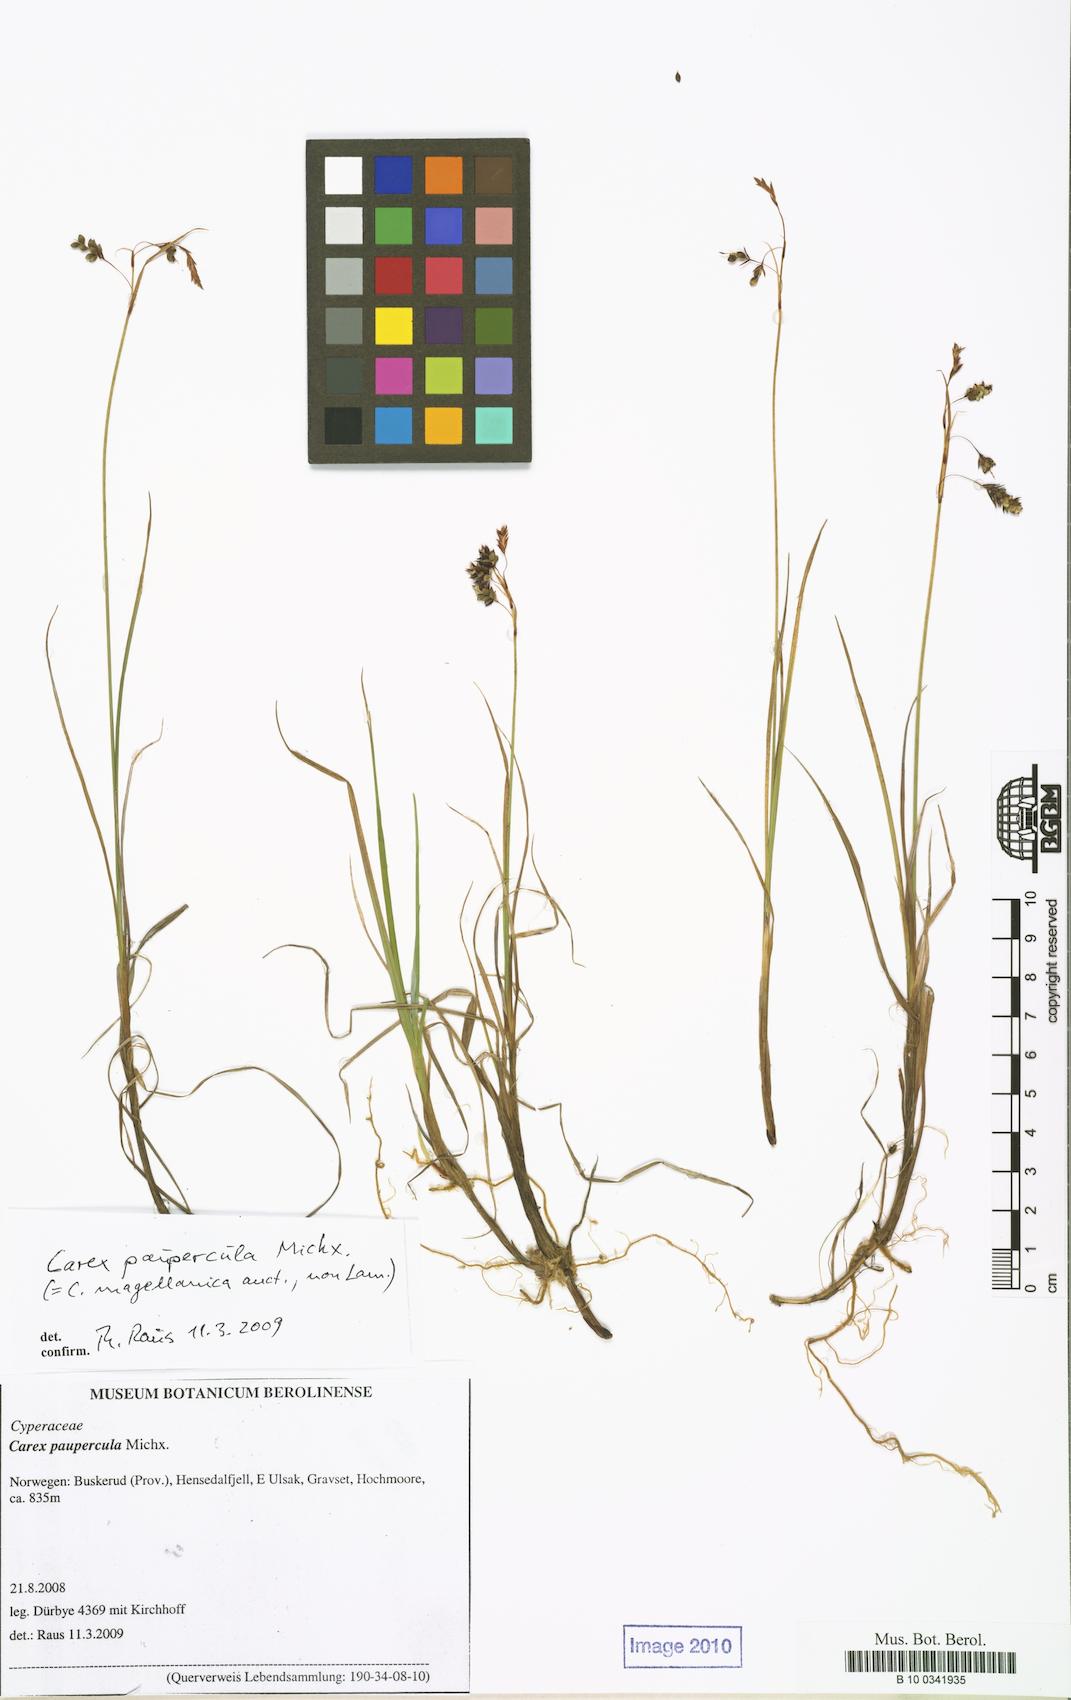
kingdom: Plantae
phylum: Tracheophyta
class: Liliopsida
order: Poales
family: Cyperaceae
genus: Carex
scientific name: Carex magellanica
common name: Bog sedge
